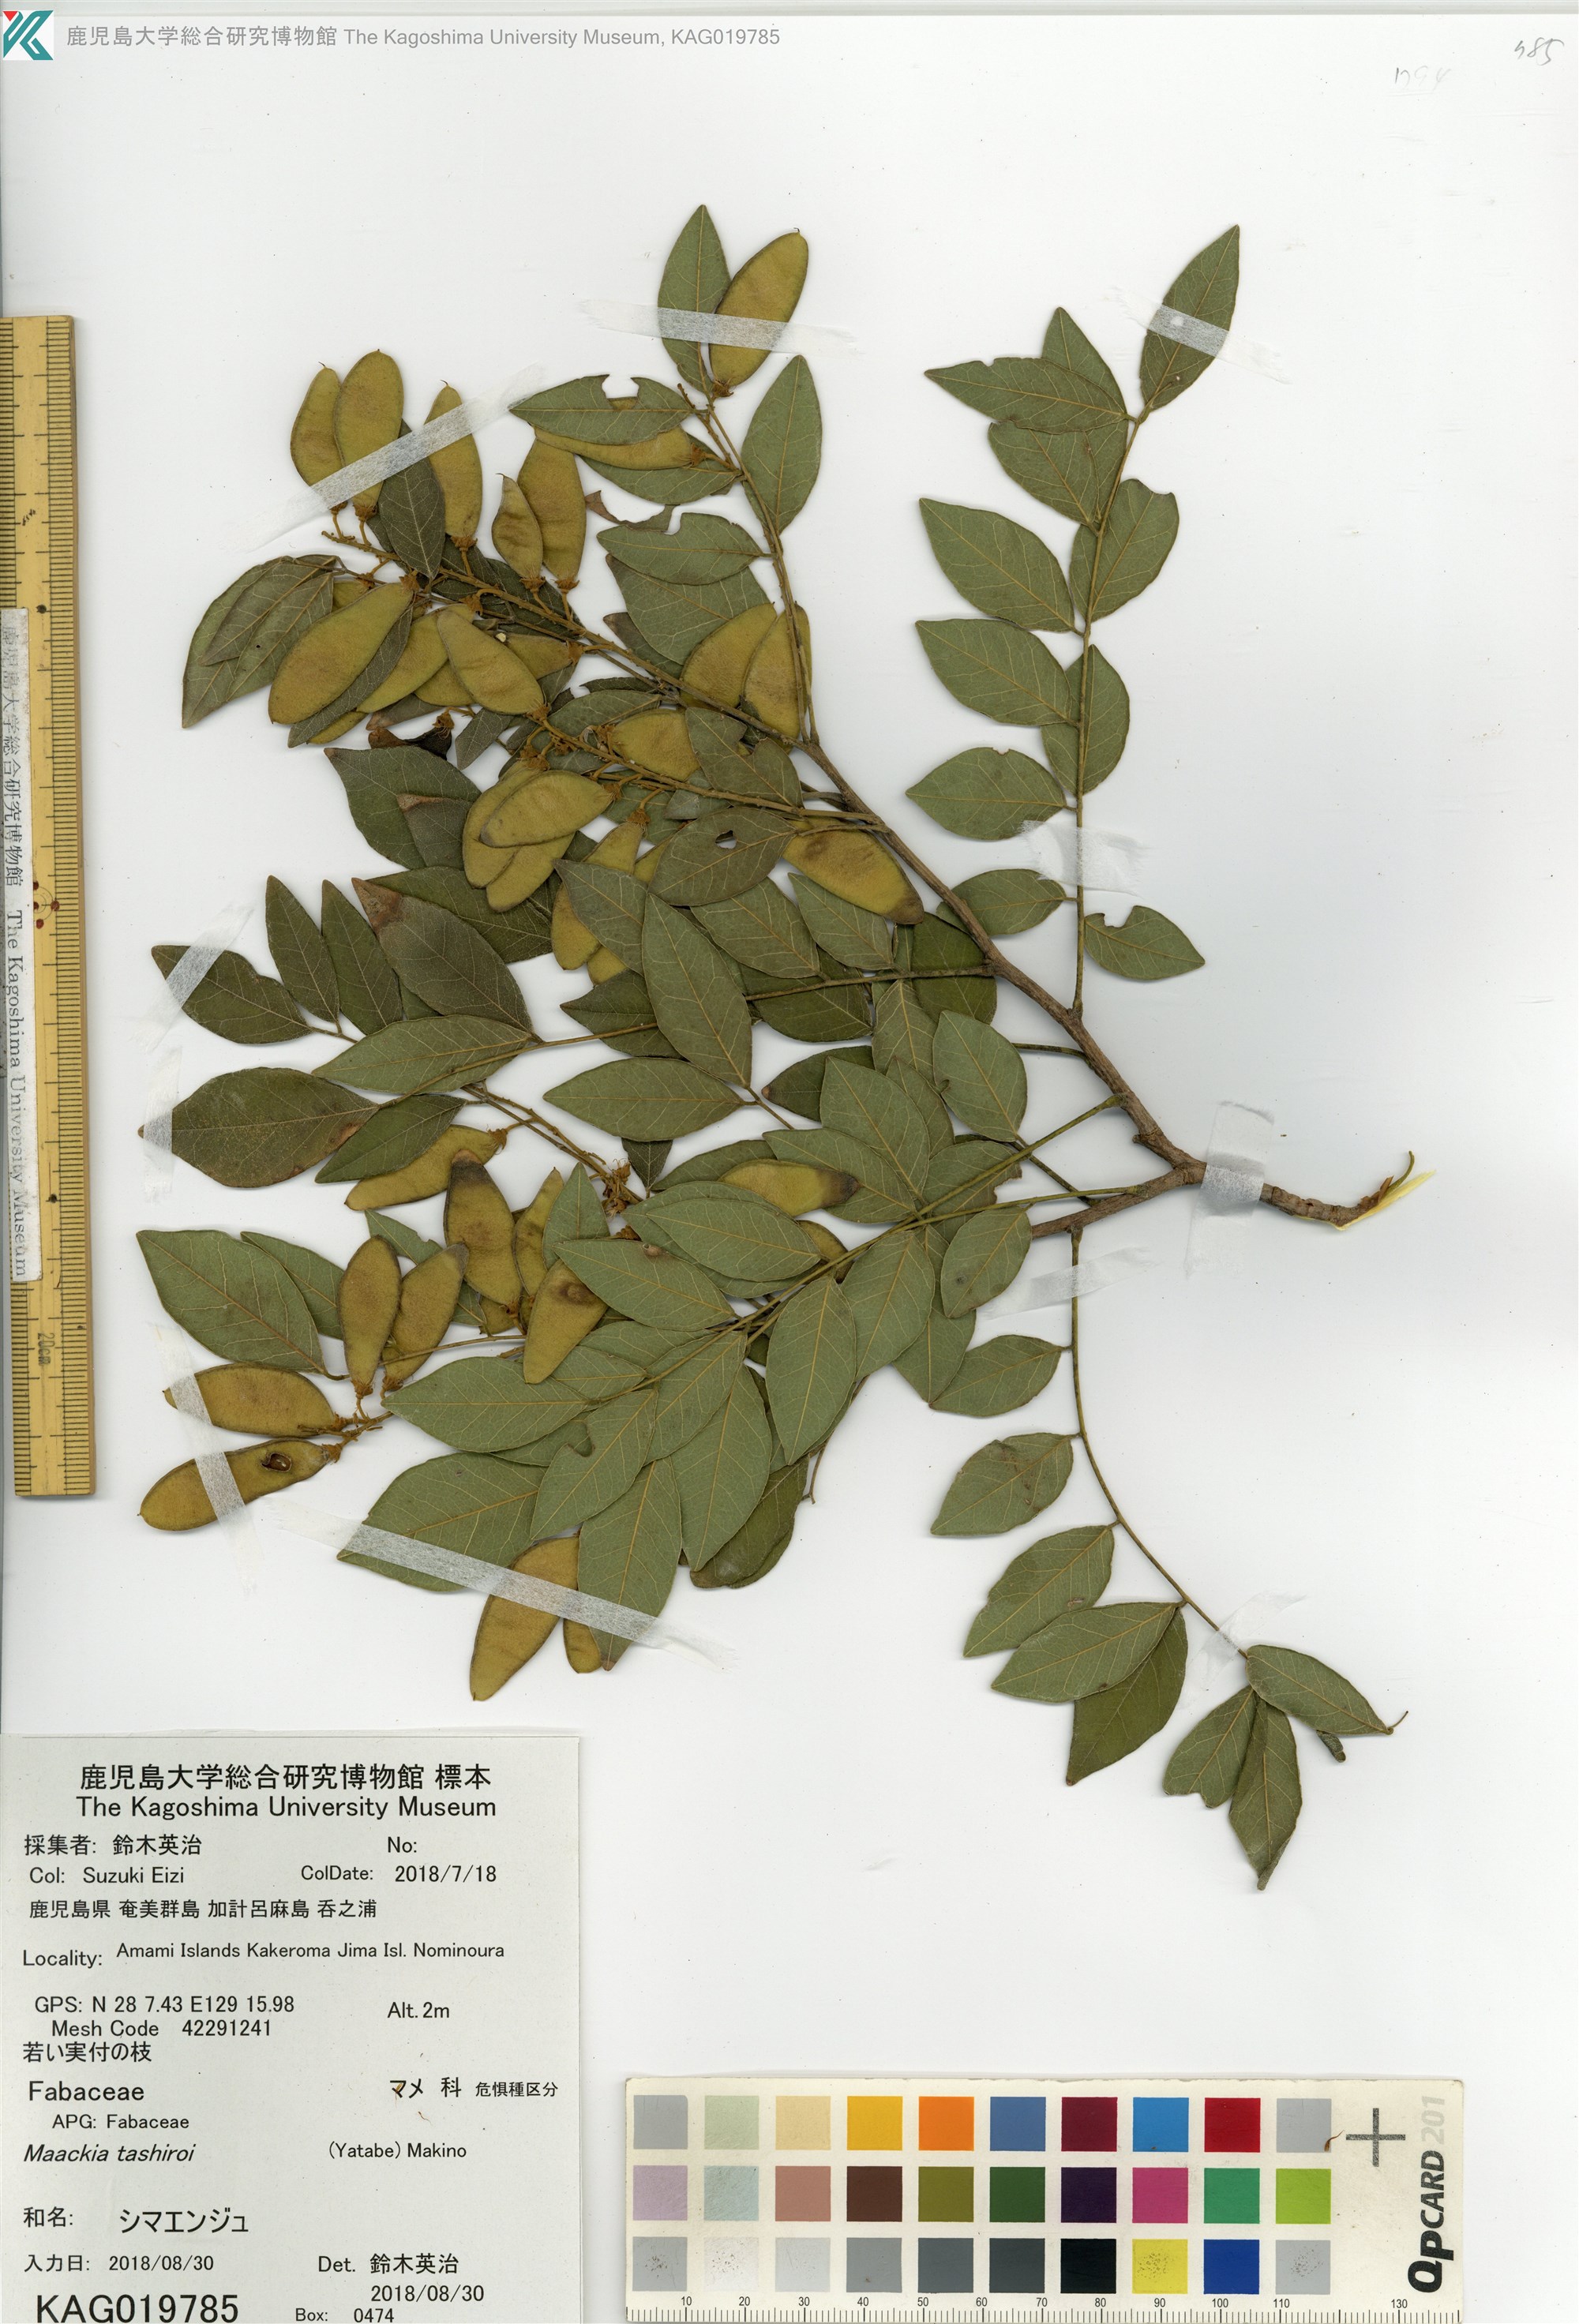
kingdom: Plantae
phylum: Tracheophyta
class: Magnoliopsida
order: Fabales
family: Fabaceae
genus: Maackia
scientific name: Maackia tashiroi
